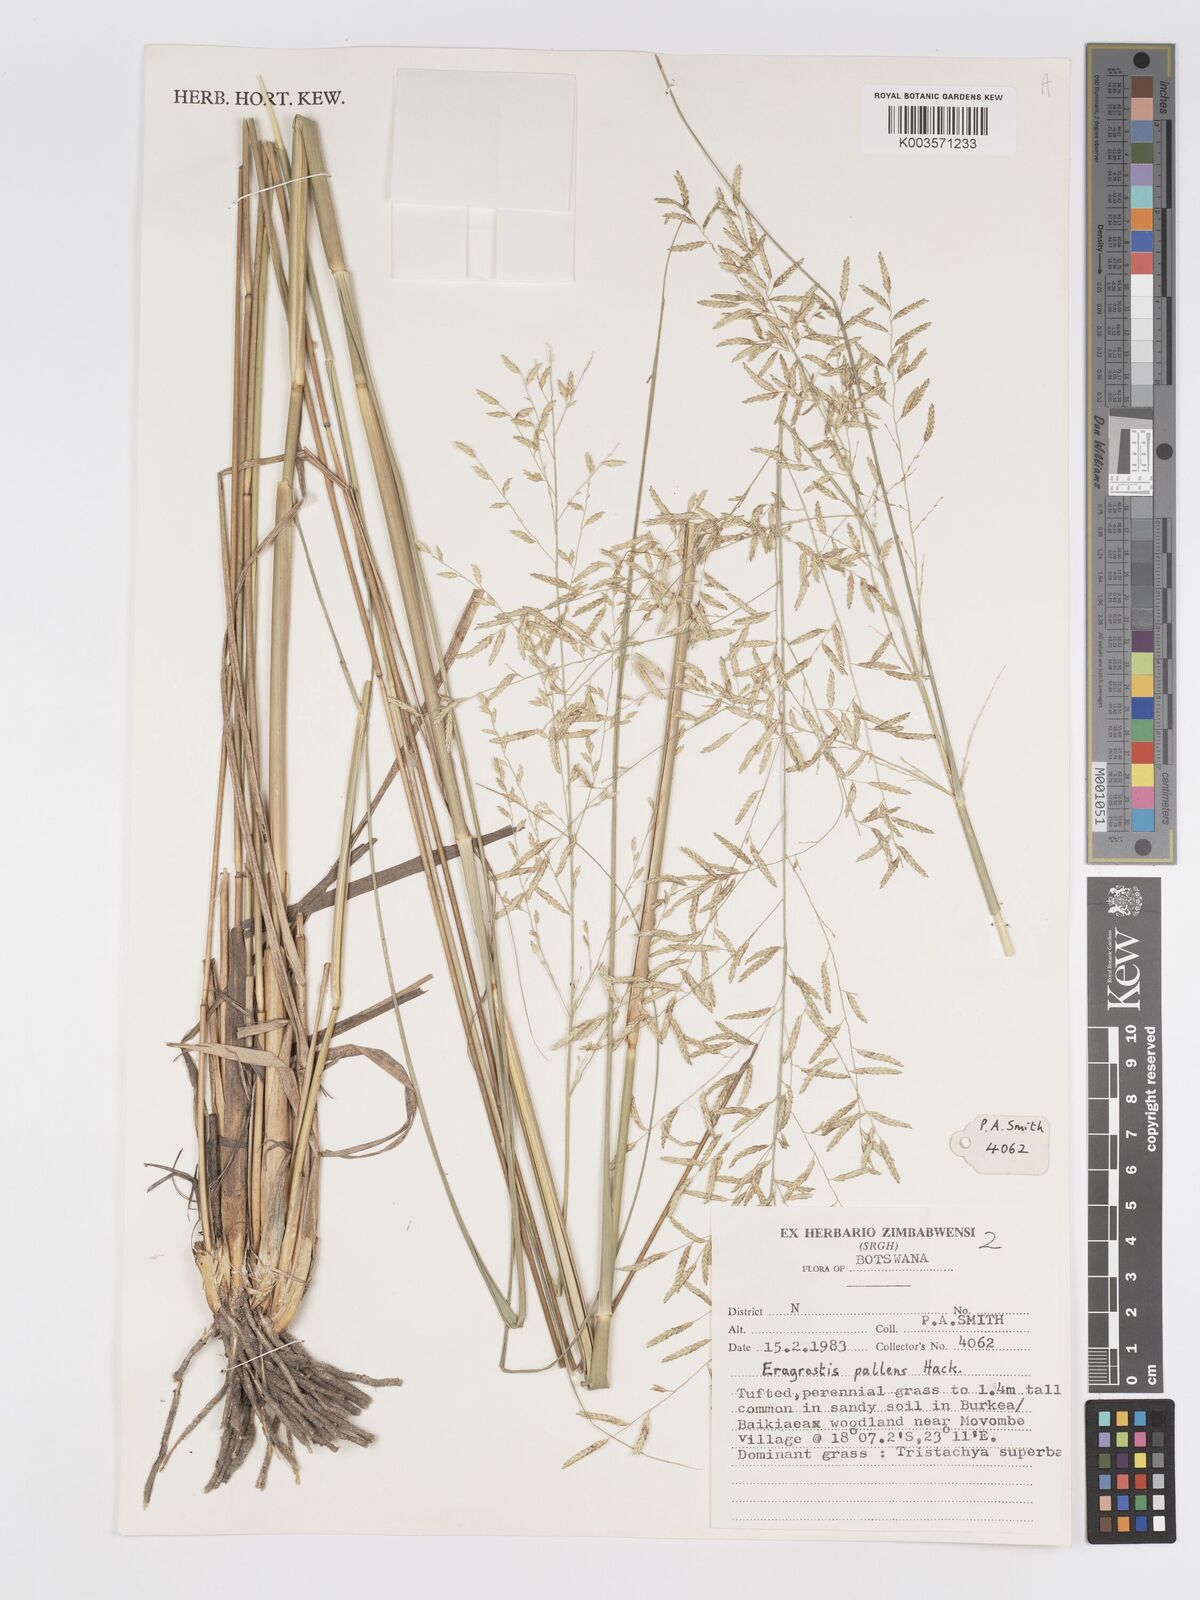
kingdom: Plantae
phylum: Tracheophyta
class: Liliopsida
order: Poales
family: Poaceae
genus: Eragrostis
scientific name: Eragrostis pallens
